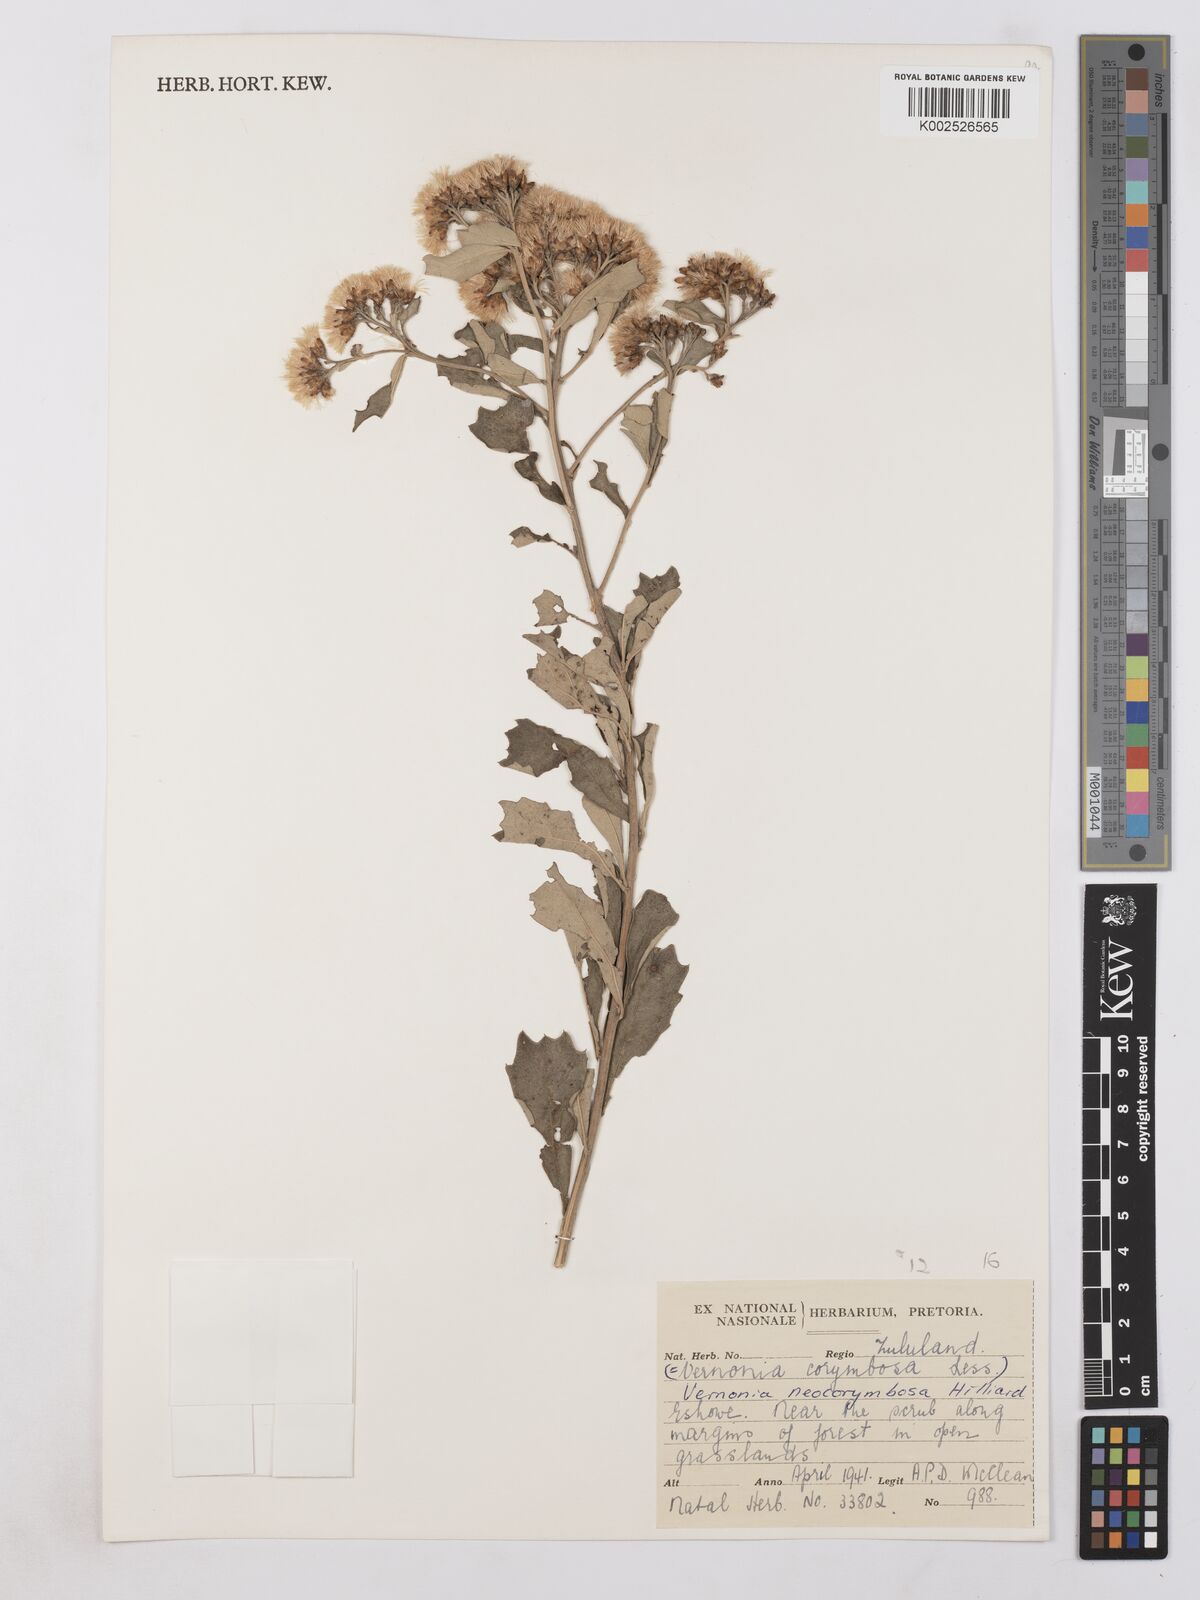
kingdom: Plantae
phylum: Tracheophyta
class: Magnoliopsida
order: Asterales
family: Asteraceae
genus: Gymnanthemum
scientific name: Gymnanthemum corymbosum
